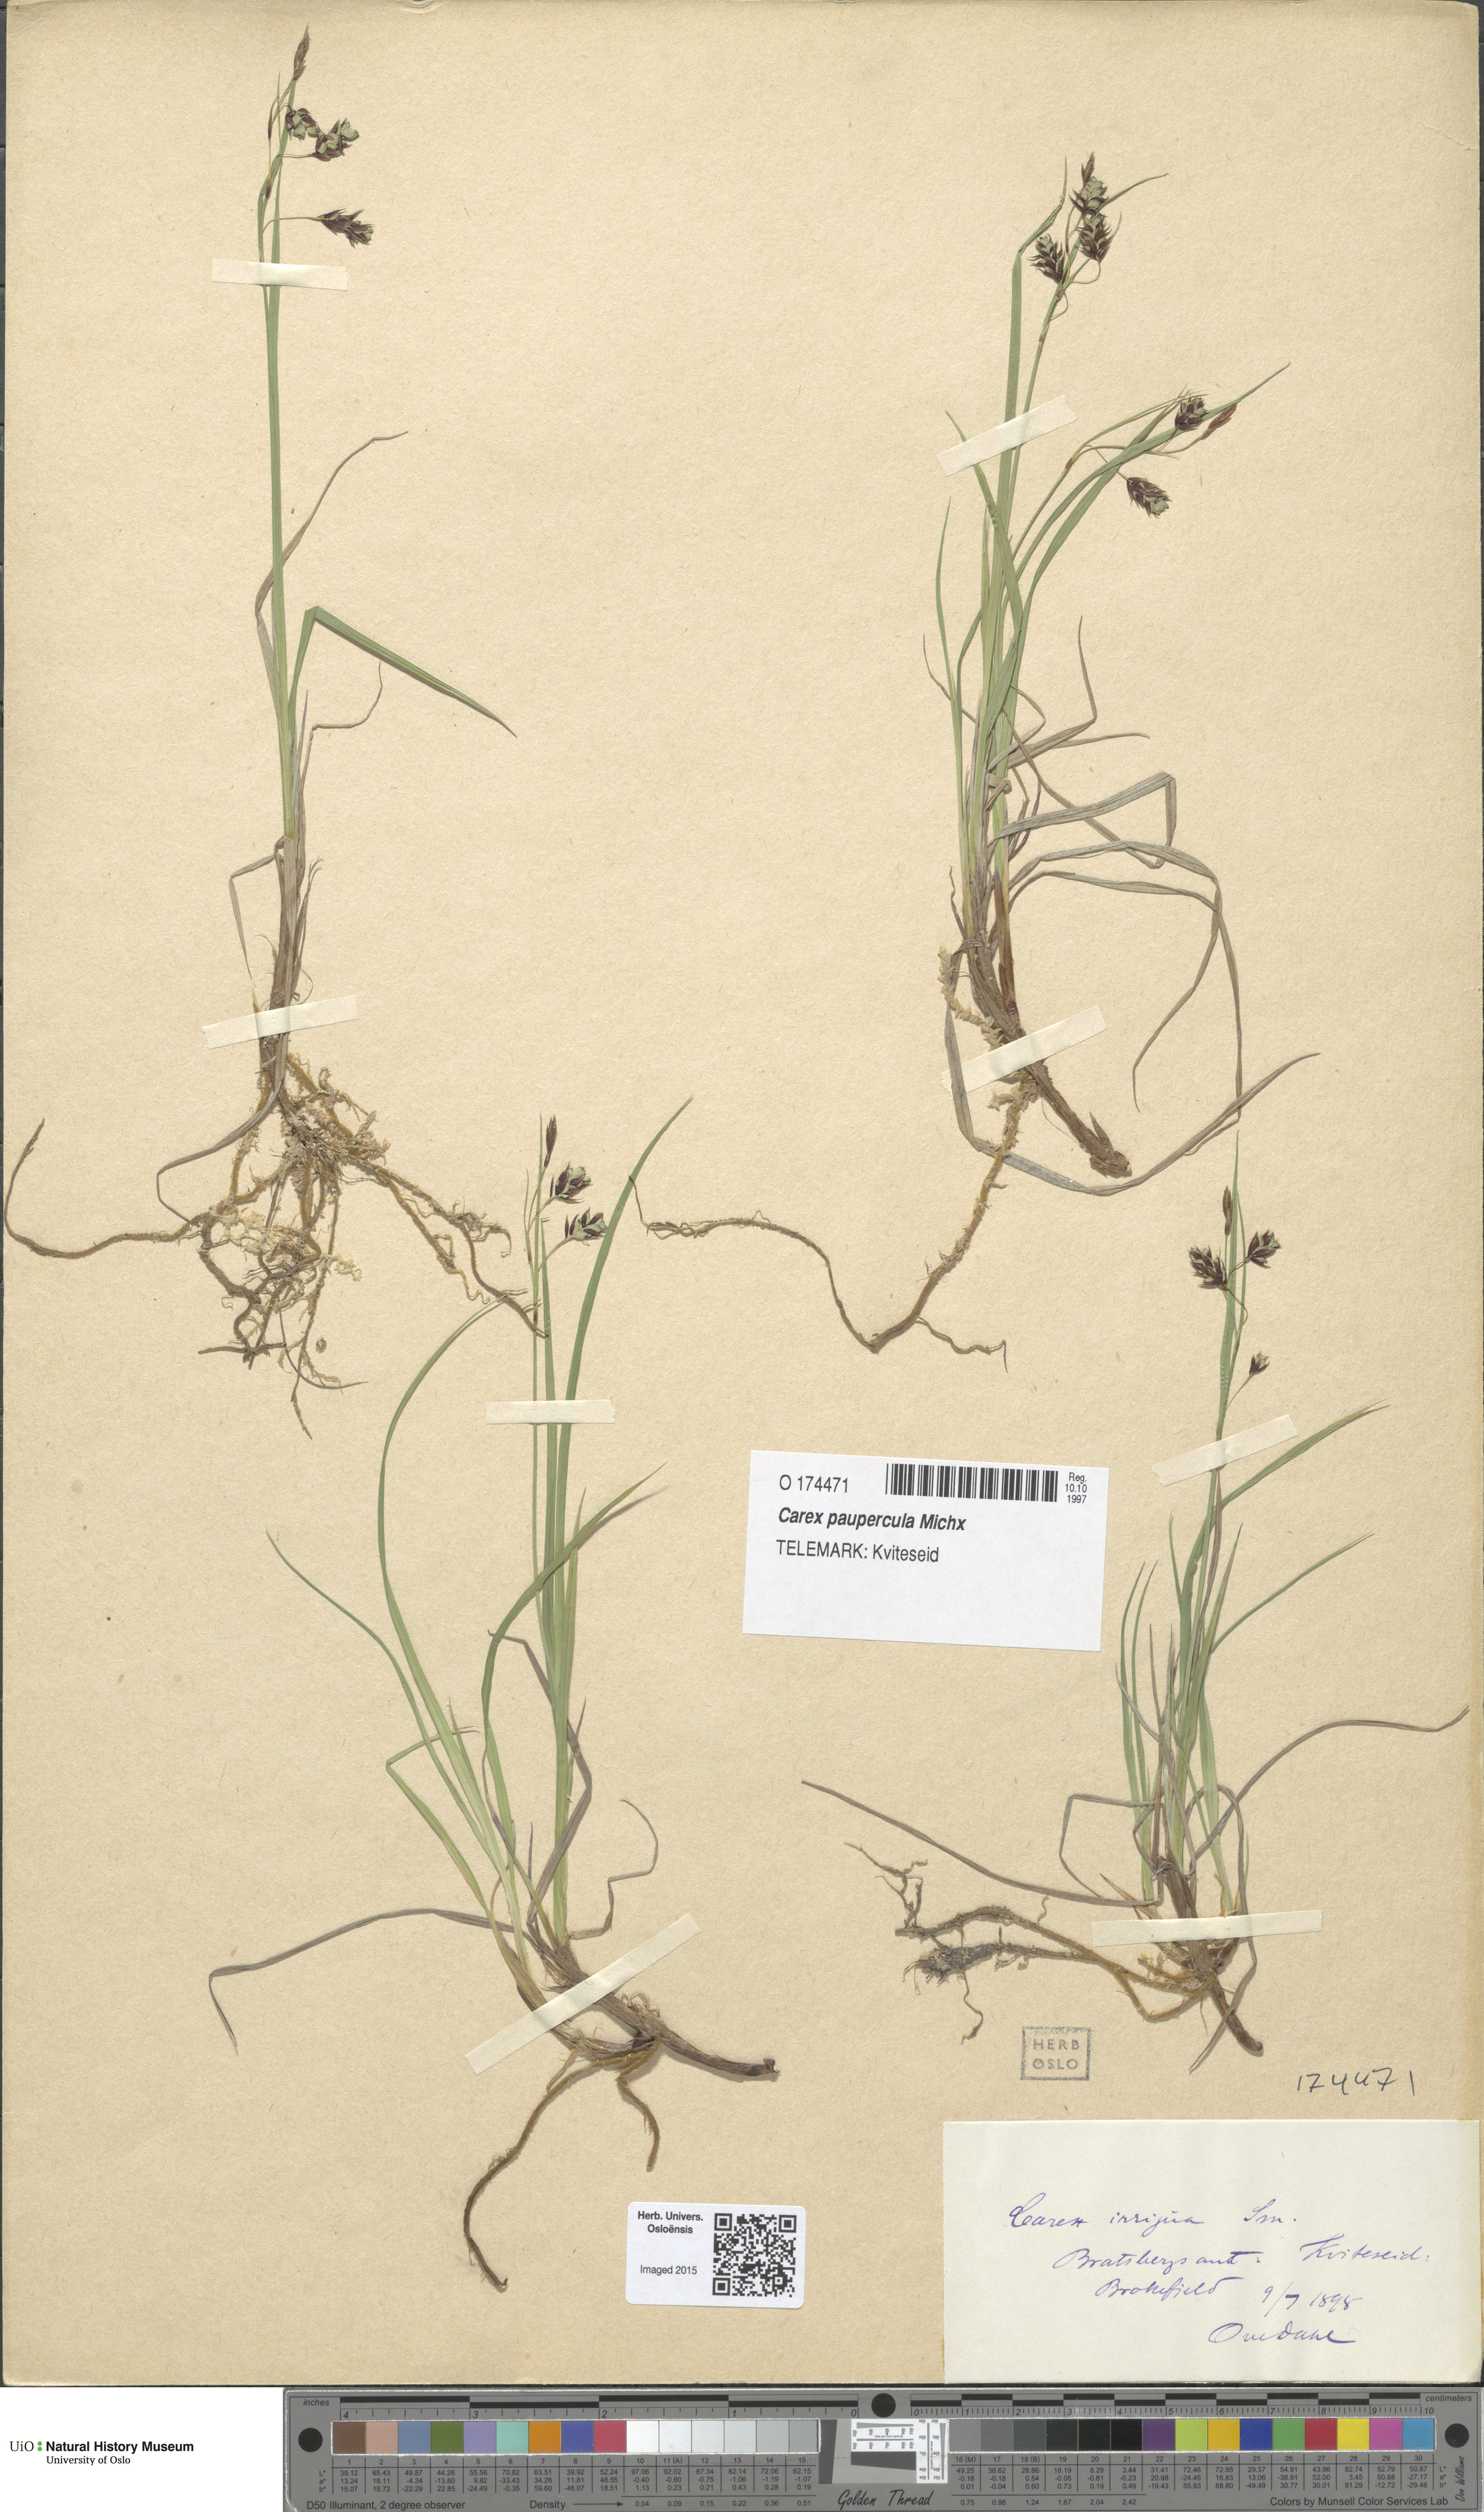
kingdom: Plantae
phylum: Tracheophyta
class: Liliopsida
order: Poales
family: Cyperaceae
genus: Carex
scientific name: Carex magellanica
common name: Bog sedge
